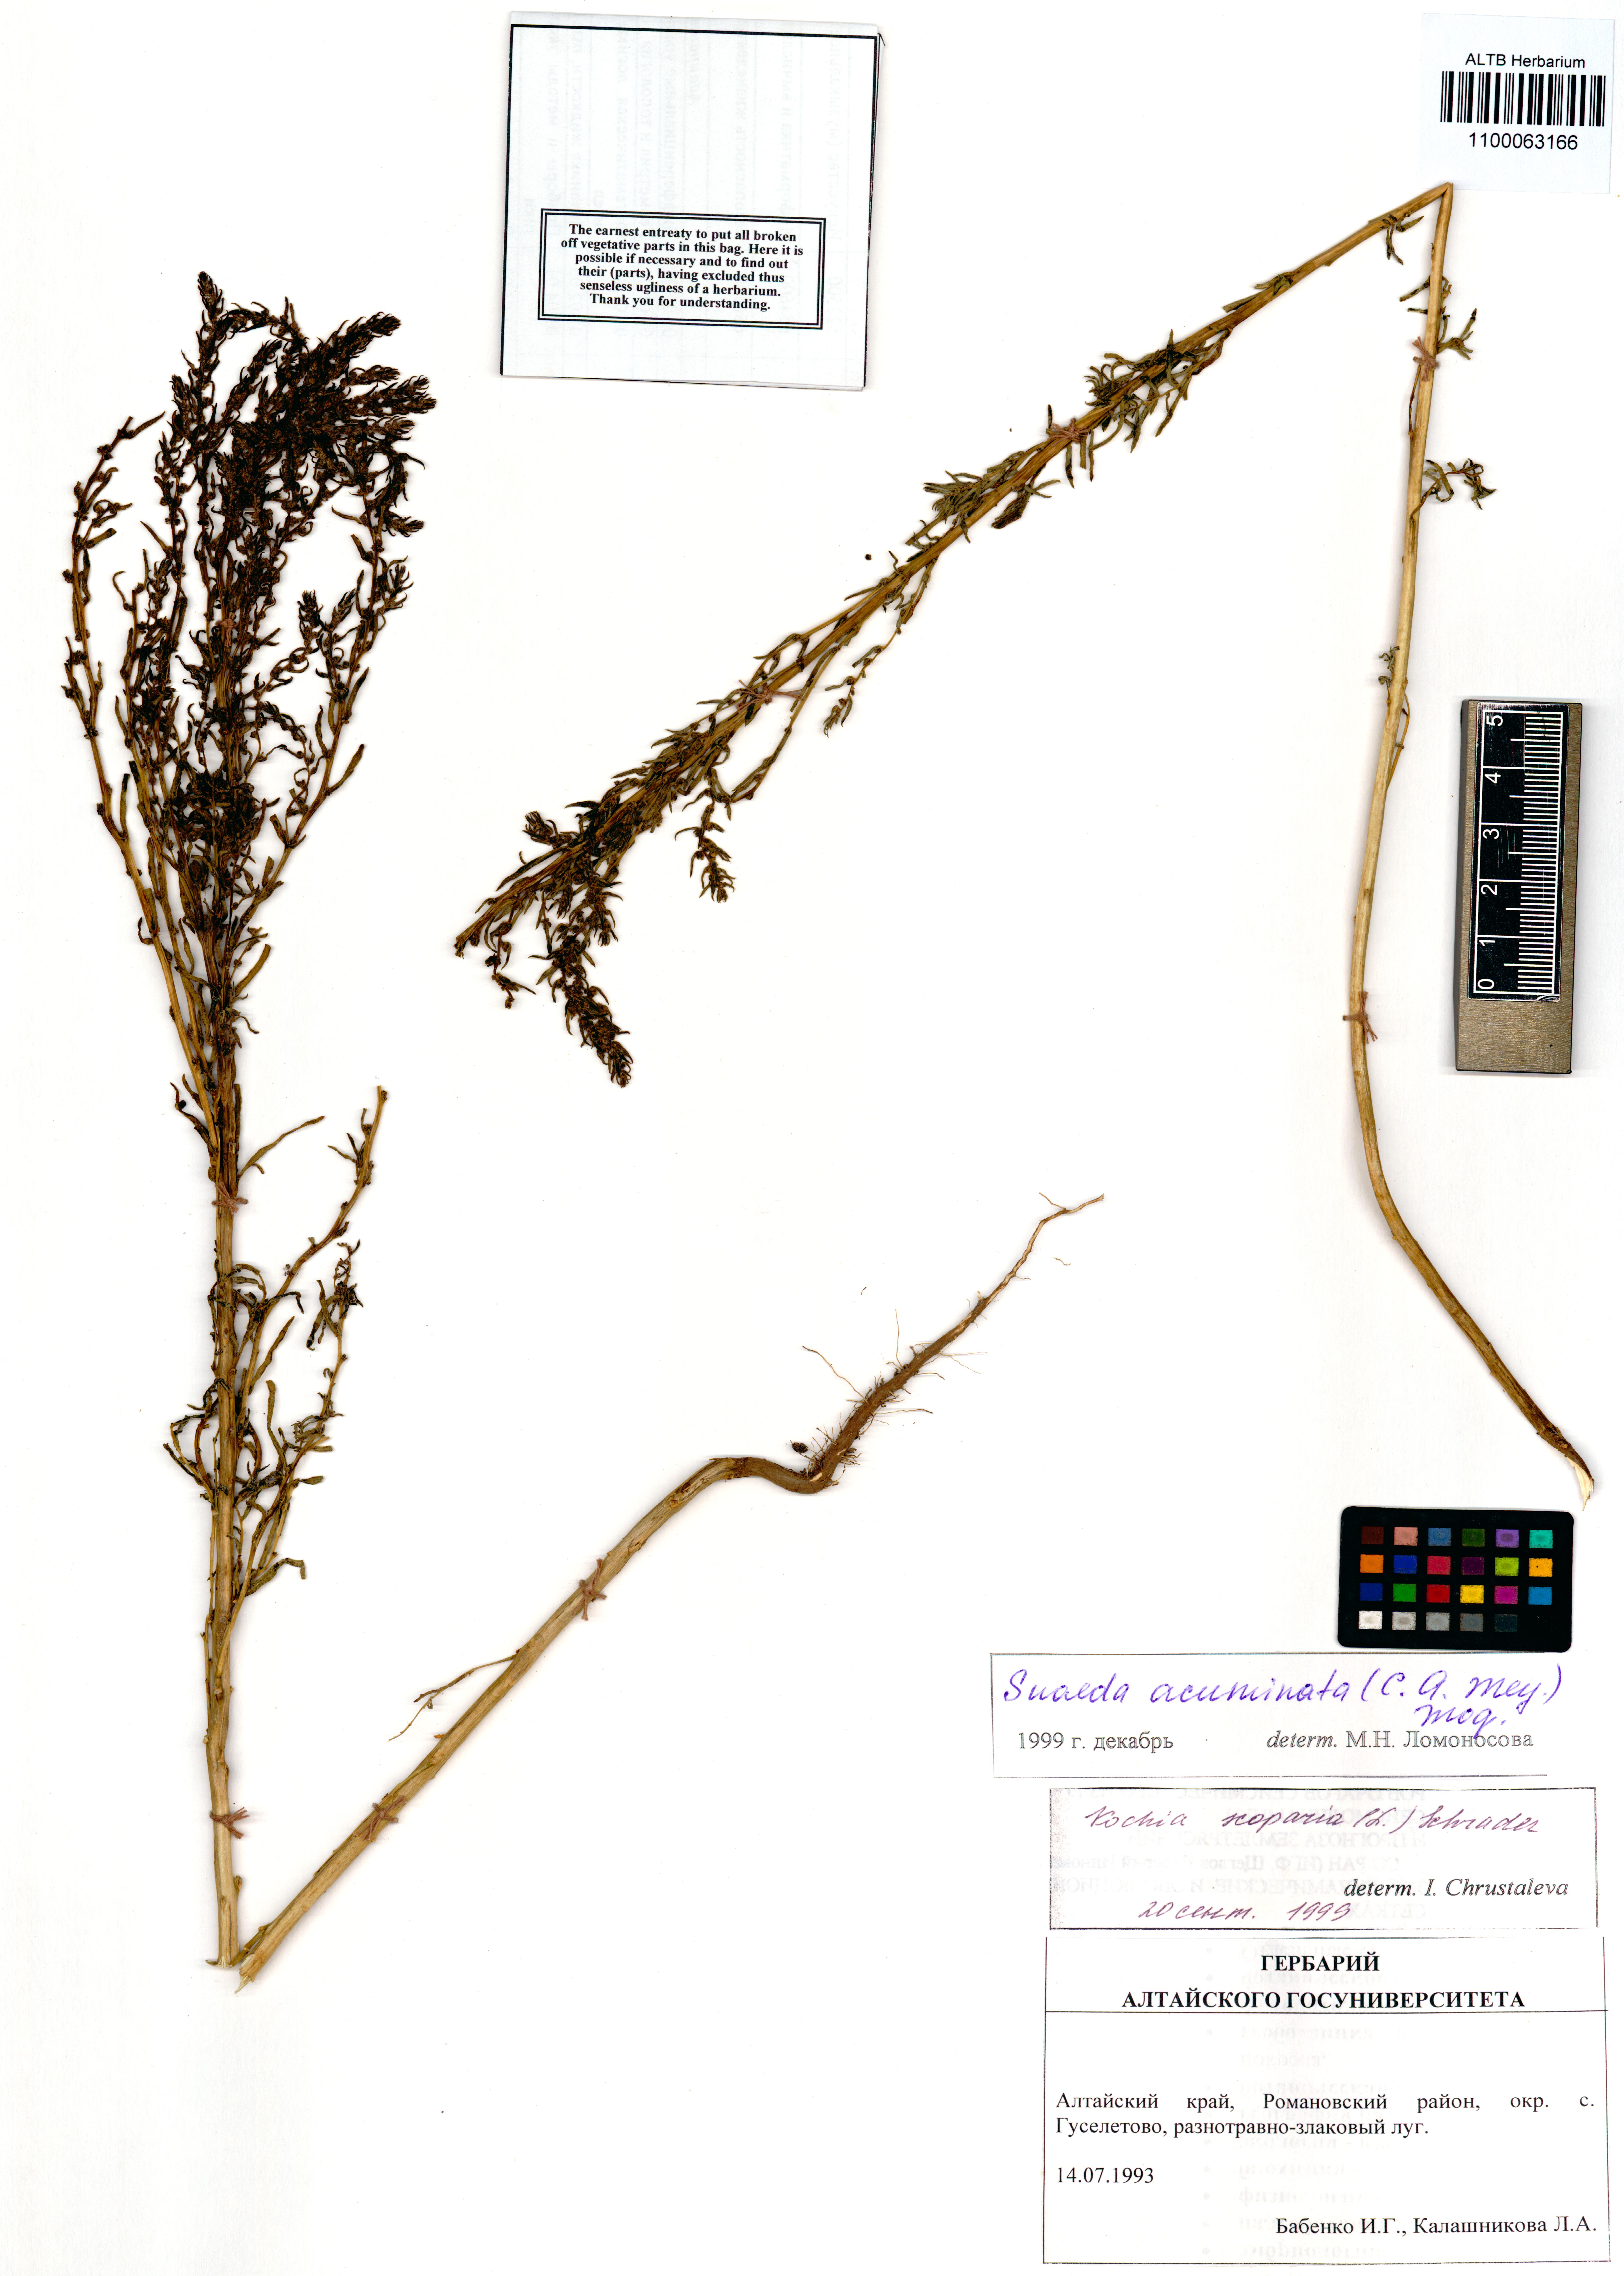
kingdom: Plantae
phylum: Tracheophyta
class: Magnoliopsida
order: Caryophyllales
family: Amaranthaceae
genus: Suaeda
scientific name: Suaeda acuminata
